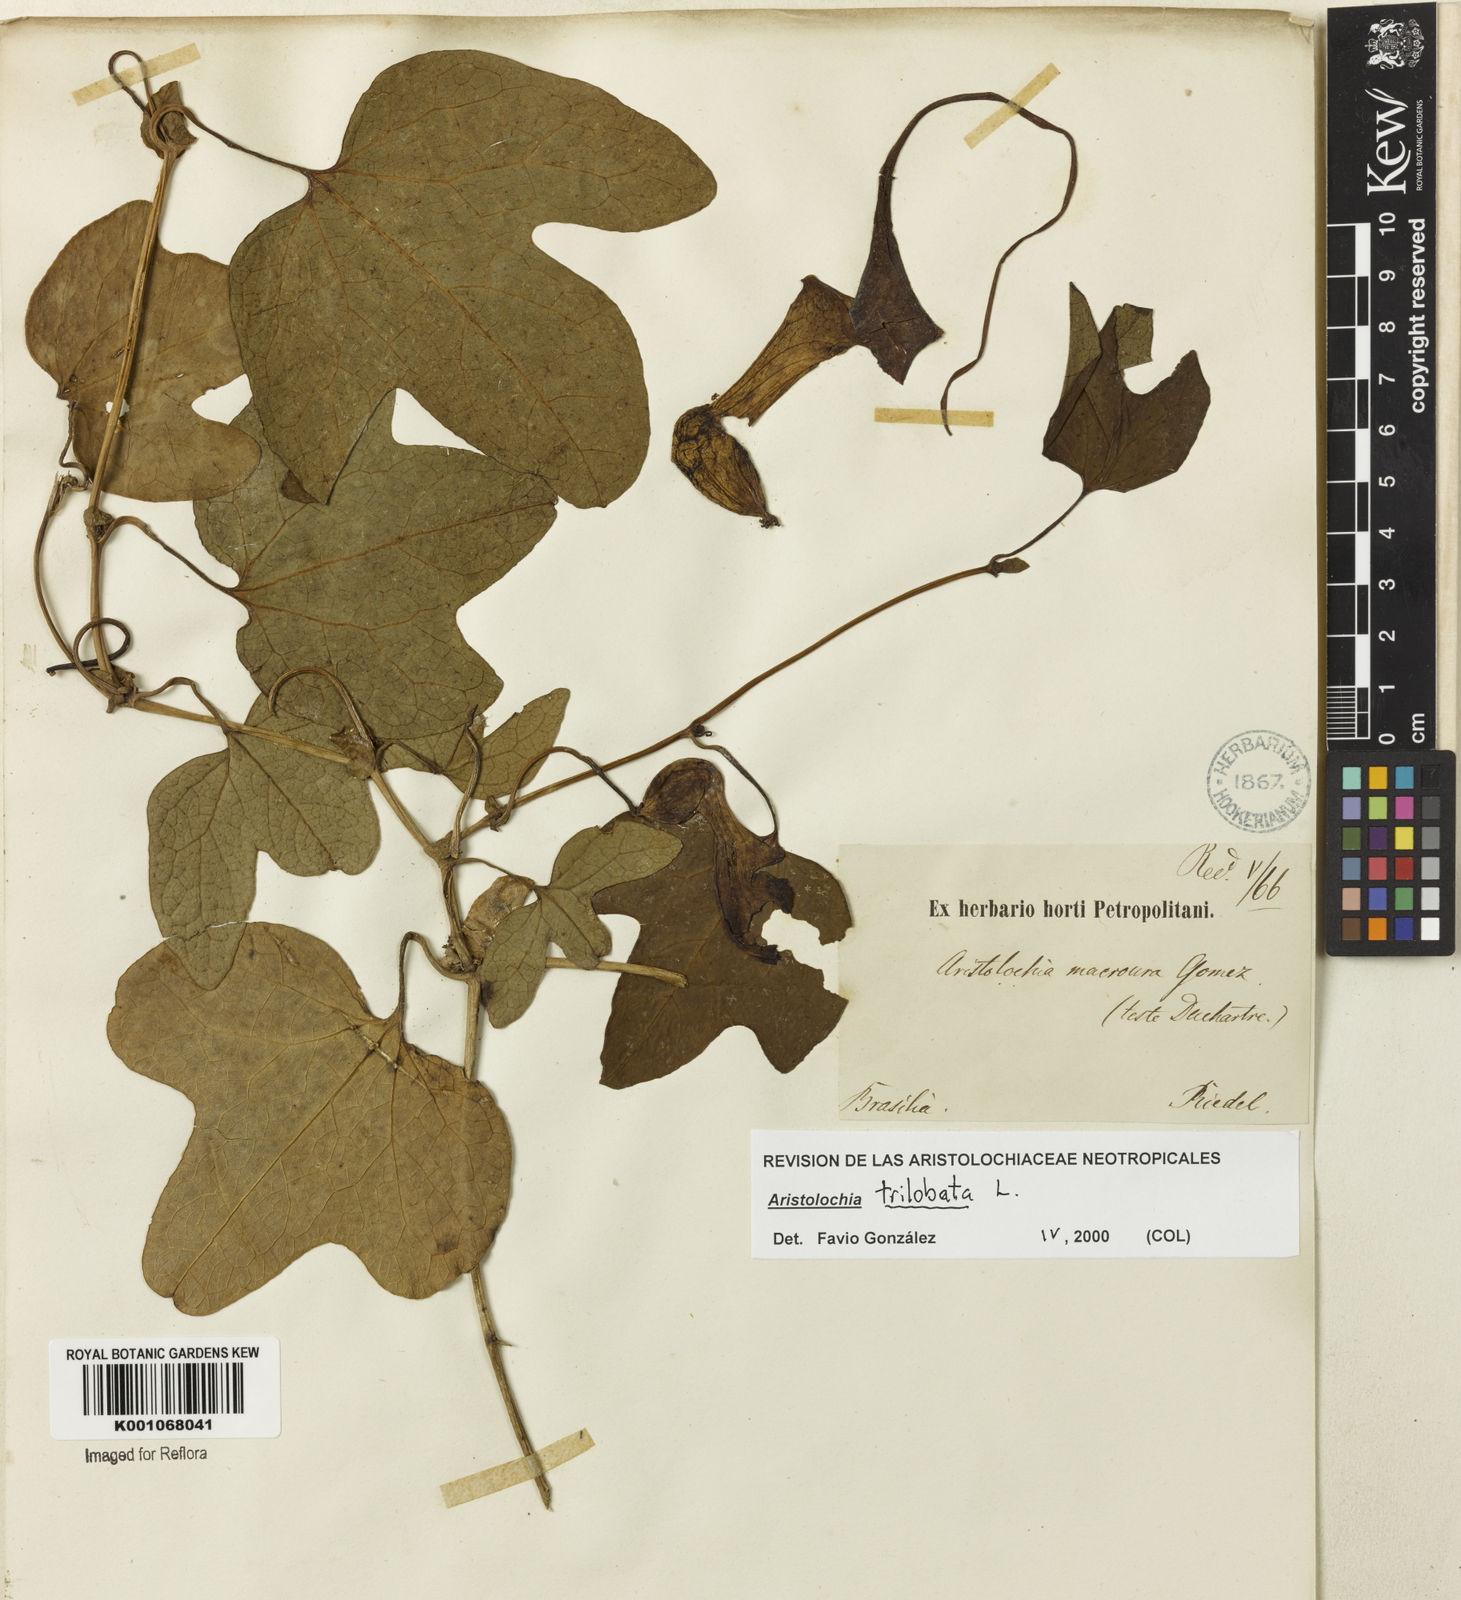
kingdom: Plantae
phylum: Tracheophyta
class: Magnoliopsida
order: Piperales
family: Aristolochiaceae
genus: Aristolochia
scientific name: Aristolochia trilobata
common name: Dutchman's pipe
